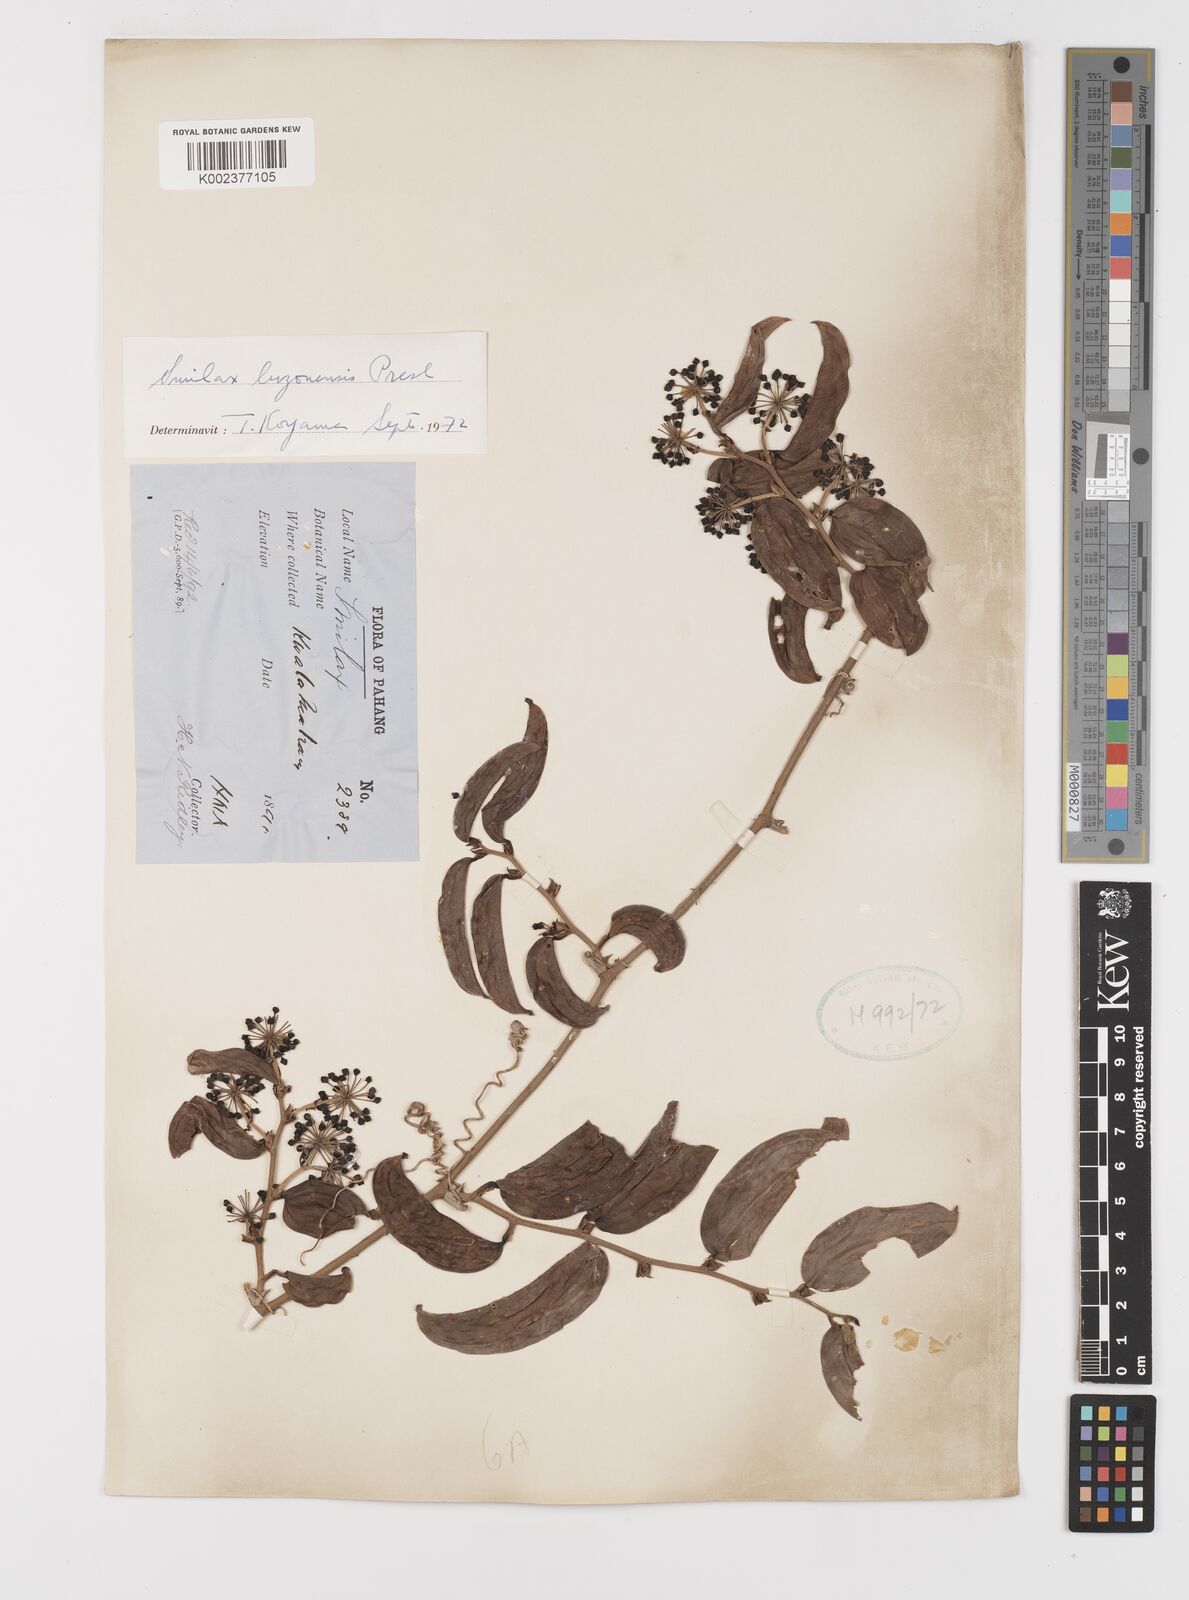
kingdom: Plantae
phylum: Tracheophyta
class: Liliopsida
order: Liliales
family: Smilacaceae
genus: Smilax
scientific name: Smilax luzonensis
